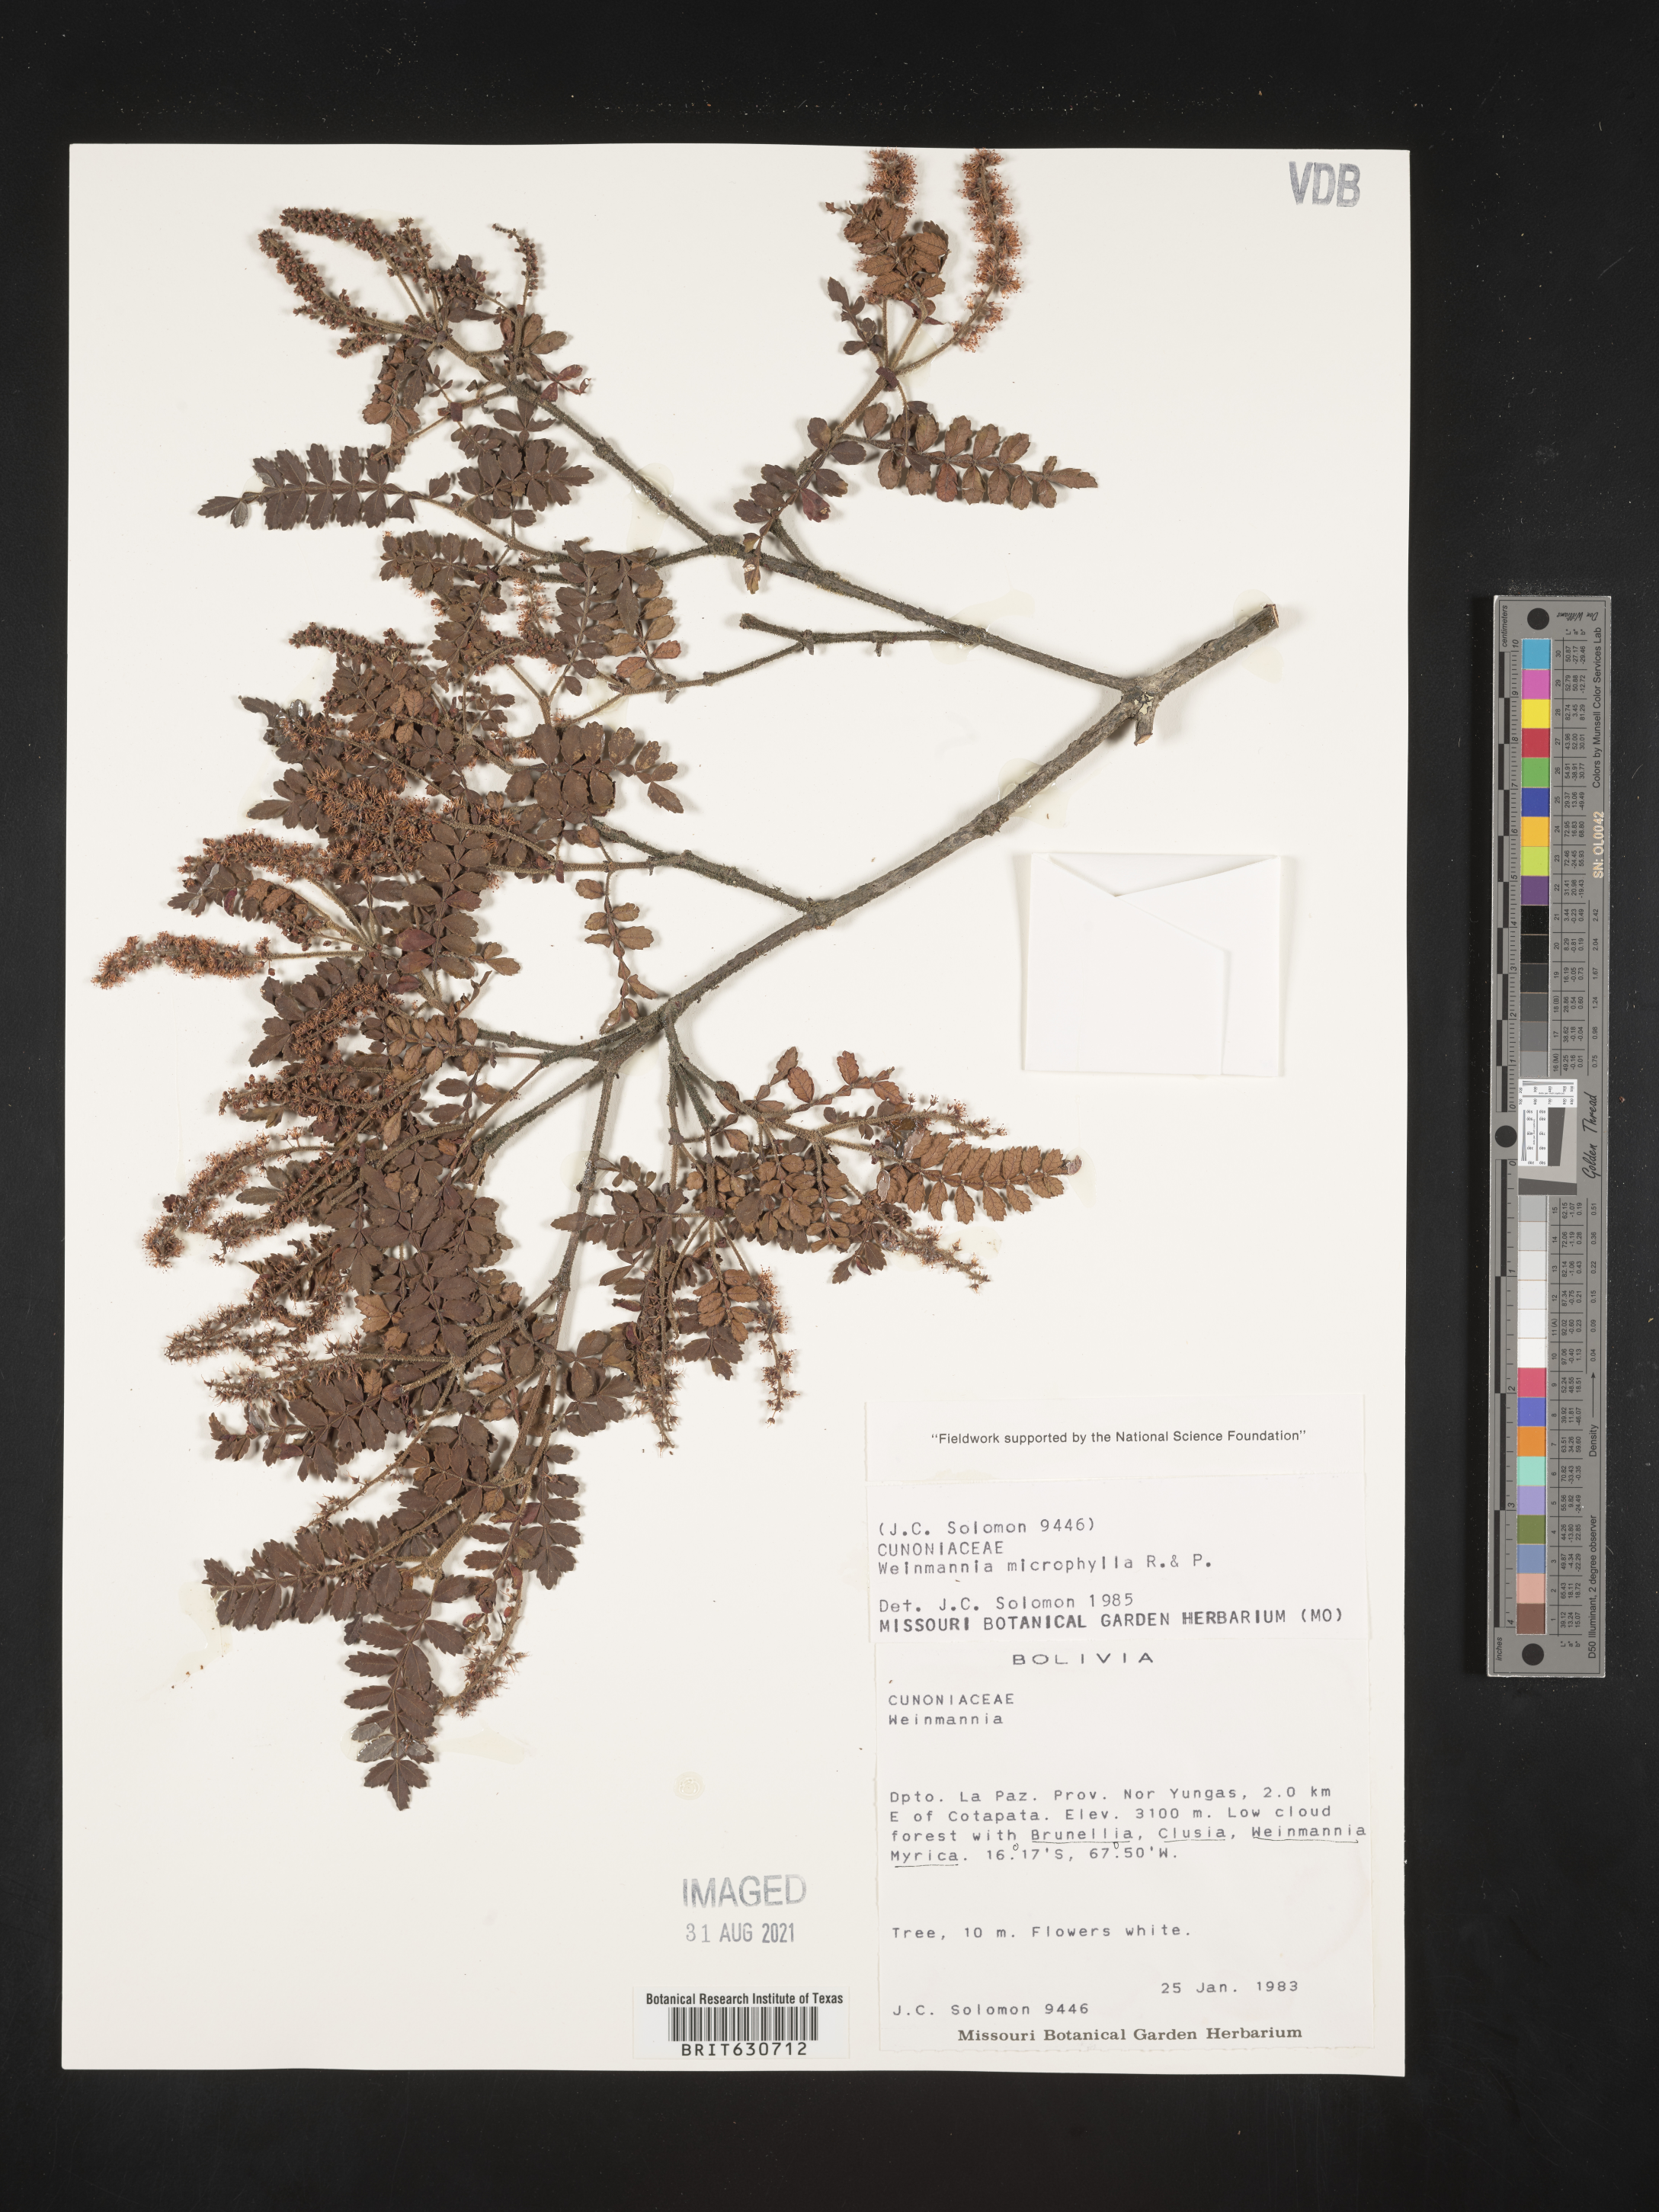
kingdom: Plantae
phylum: Tracheophyta
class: Magnoliopsida
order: Oxalidales
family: Cunoniaceae
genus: Weinmannia
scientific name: Weinmannia microphylla
